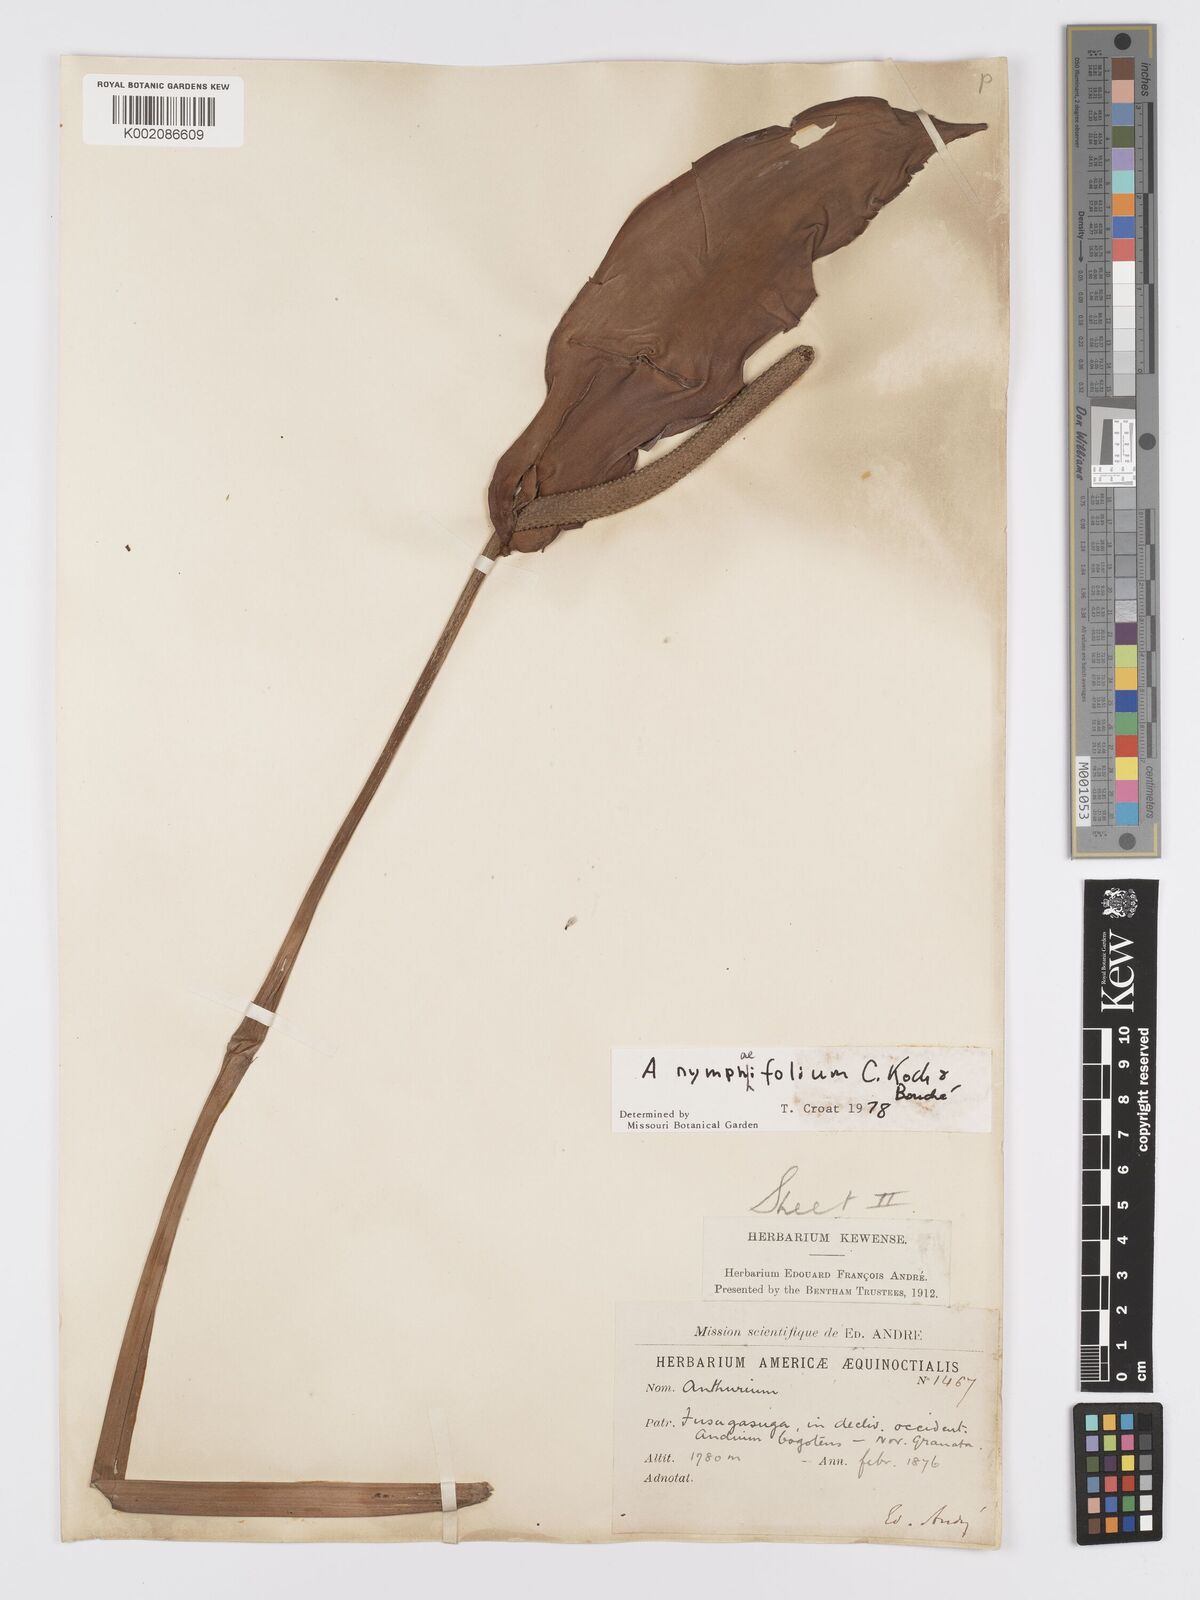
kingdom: Plantae
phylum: Tracheophyta
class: Liliopsida
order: Alismatales
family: Araceae
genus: Anthurium
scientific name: Anthurium nymphaeifolium
